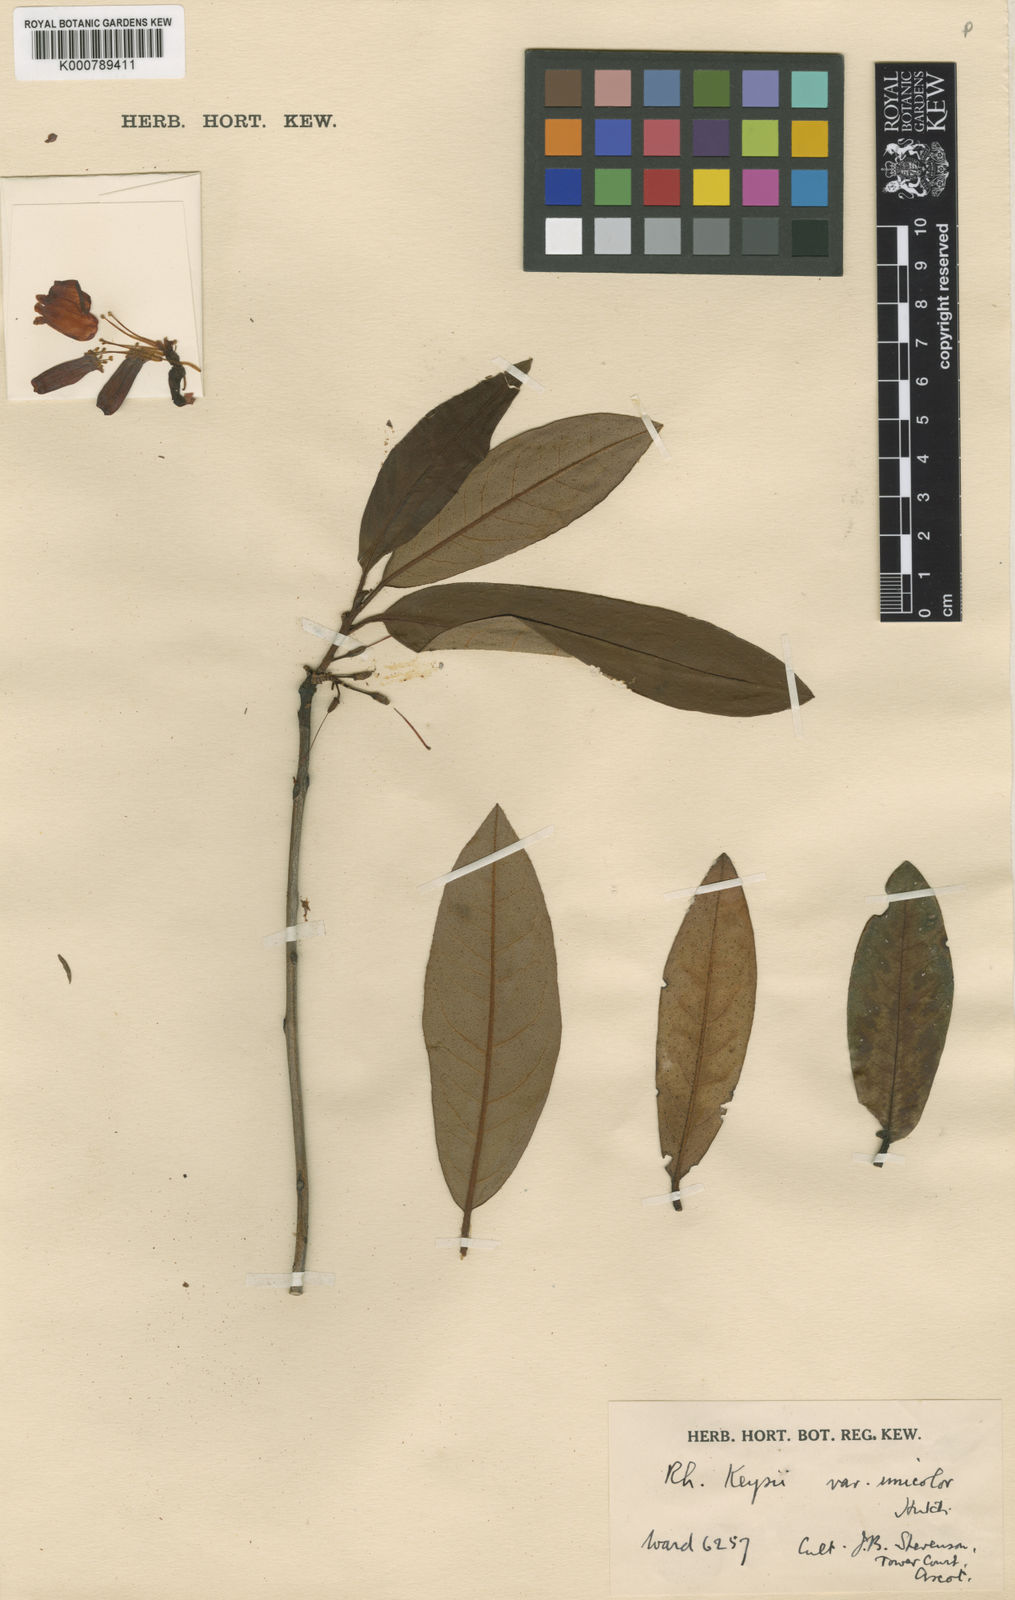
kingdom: Plantae
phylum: Tracheophyta
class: Magnoliopsida
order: Ericales
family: Ericaceae
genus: Rhododendron
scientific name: Rhododendron
